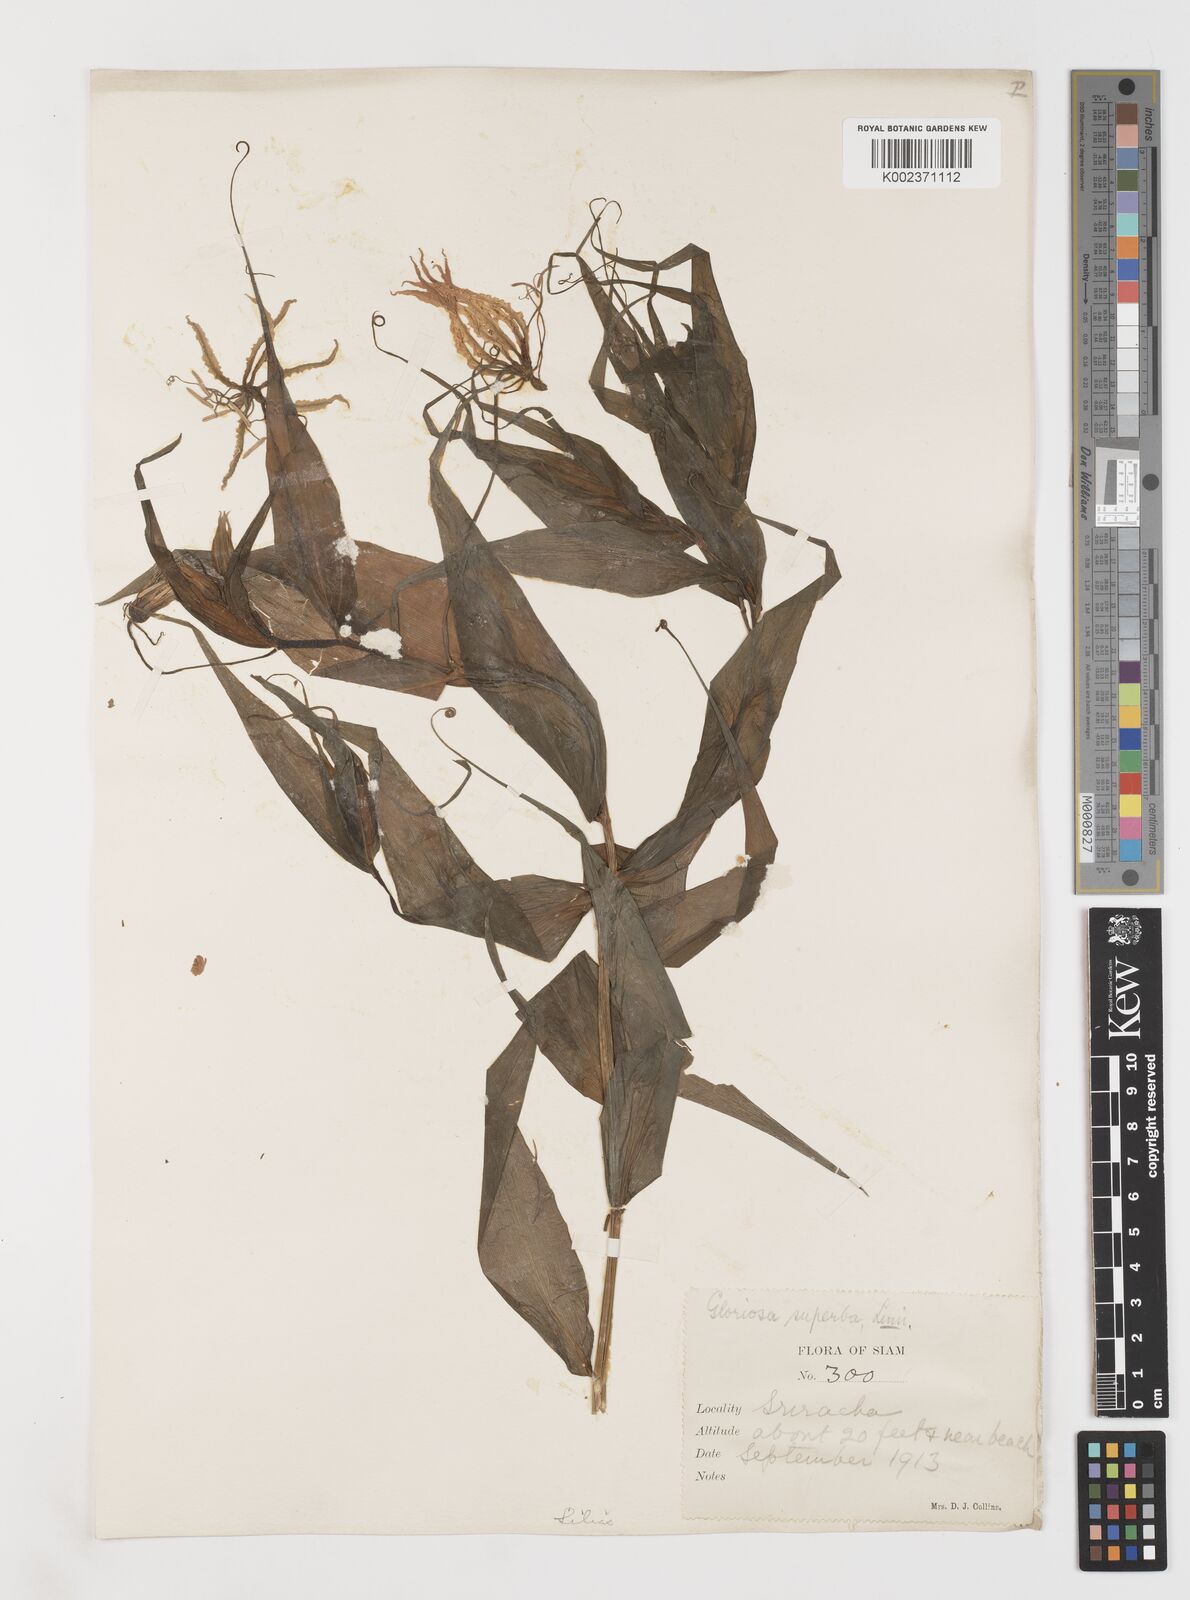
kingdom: Plantae
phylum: Tracheophyta
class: Liliopsida
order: Liliales
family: Colchicaceae
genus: Gloriosa
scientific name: Gloriosa superba
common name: Flame lily
